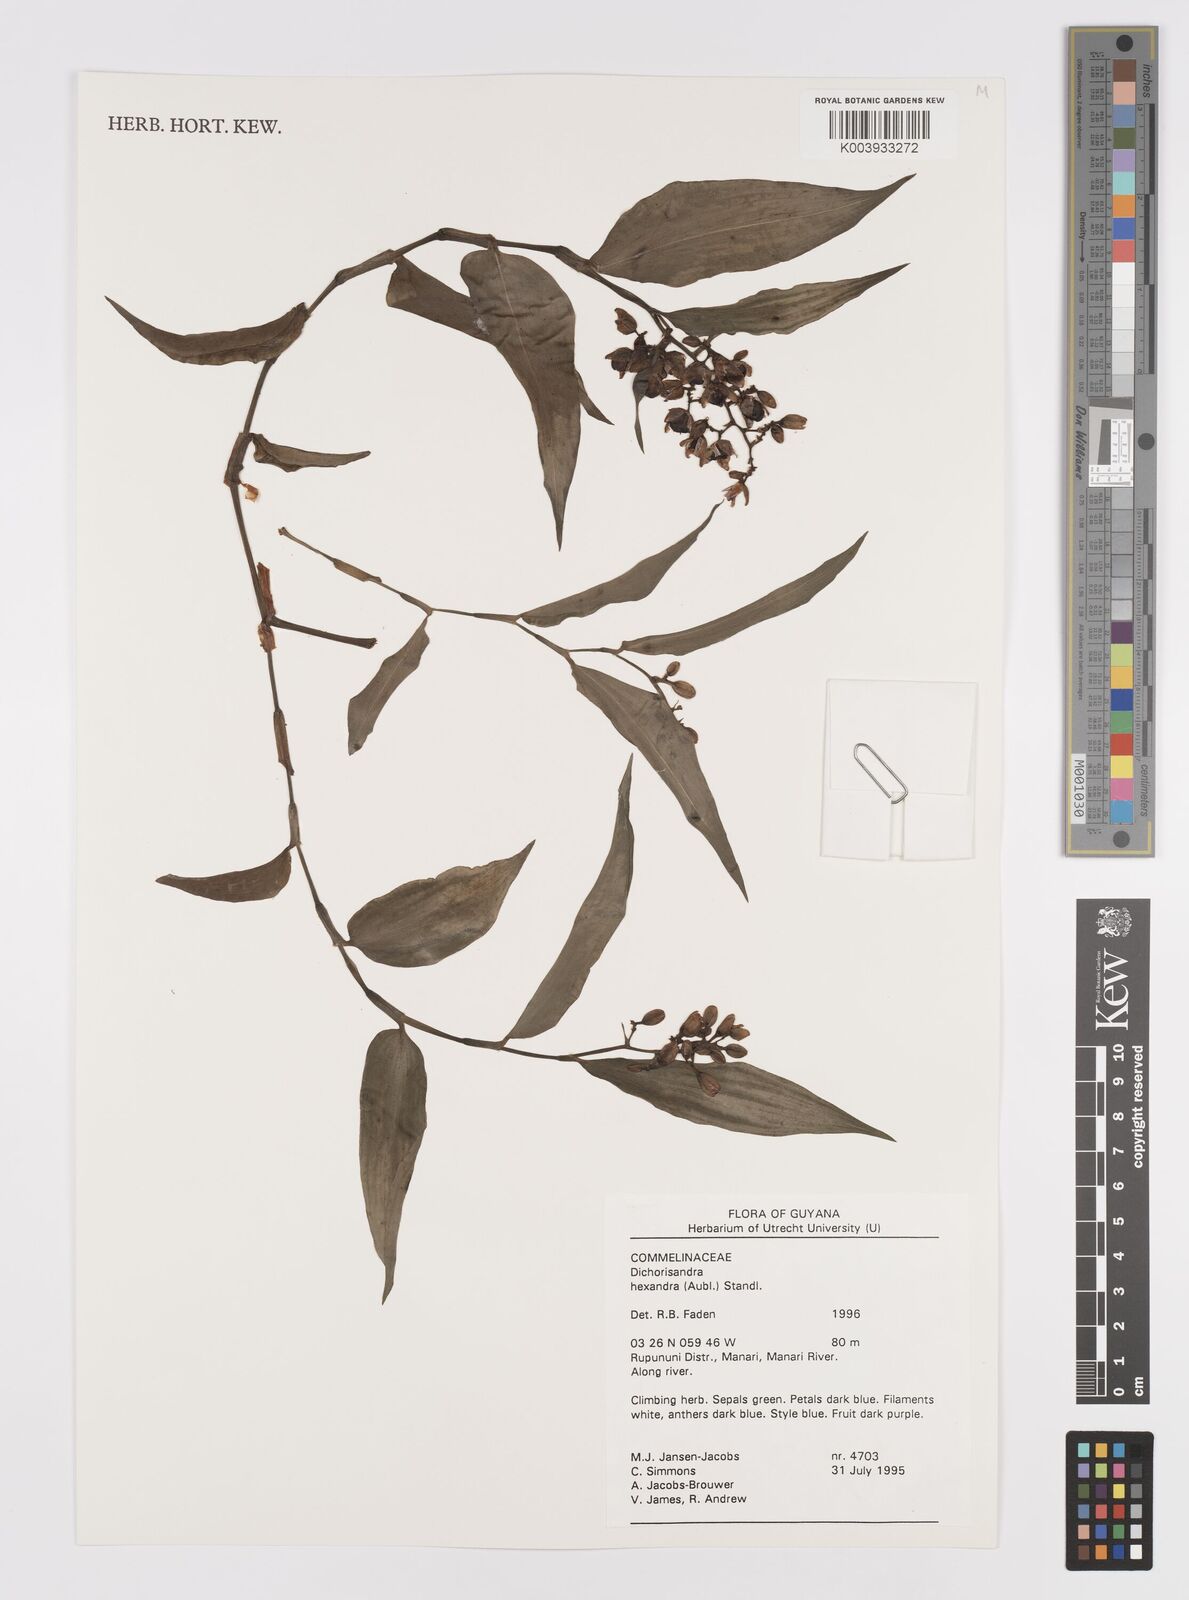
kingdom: Plantae
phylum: Tracheophyta
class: Liliopsida
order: Commelinales
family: Commelinaceae
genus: Dichorisandra
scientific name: Dichorisandra hexandra
